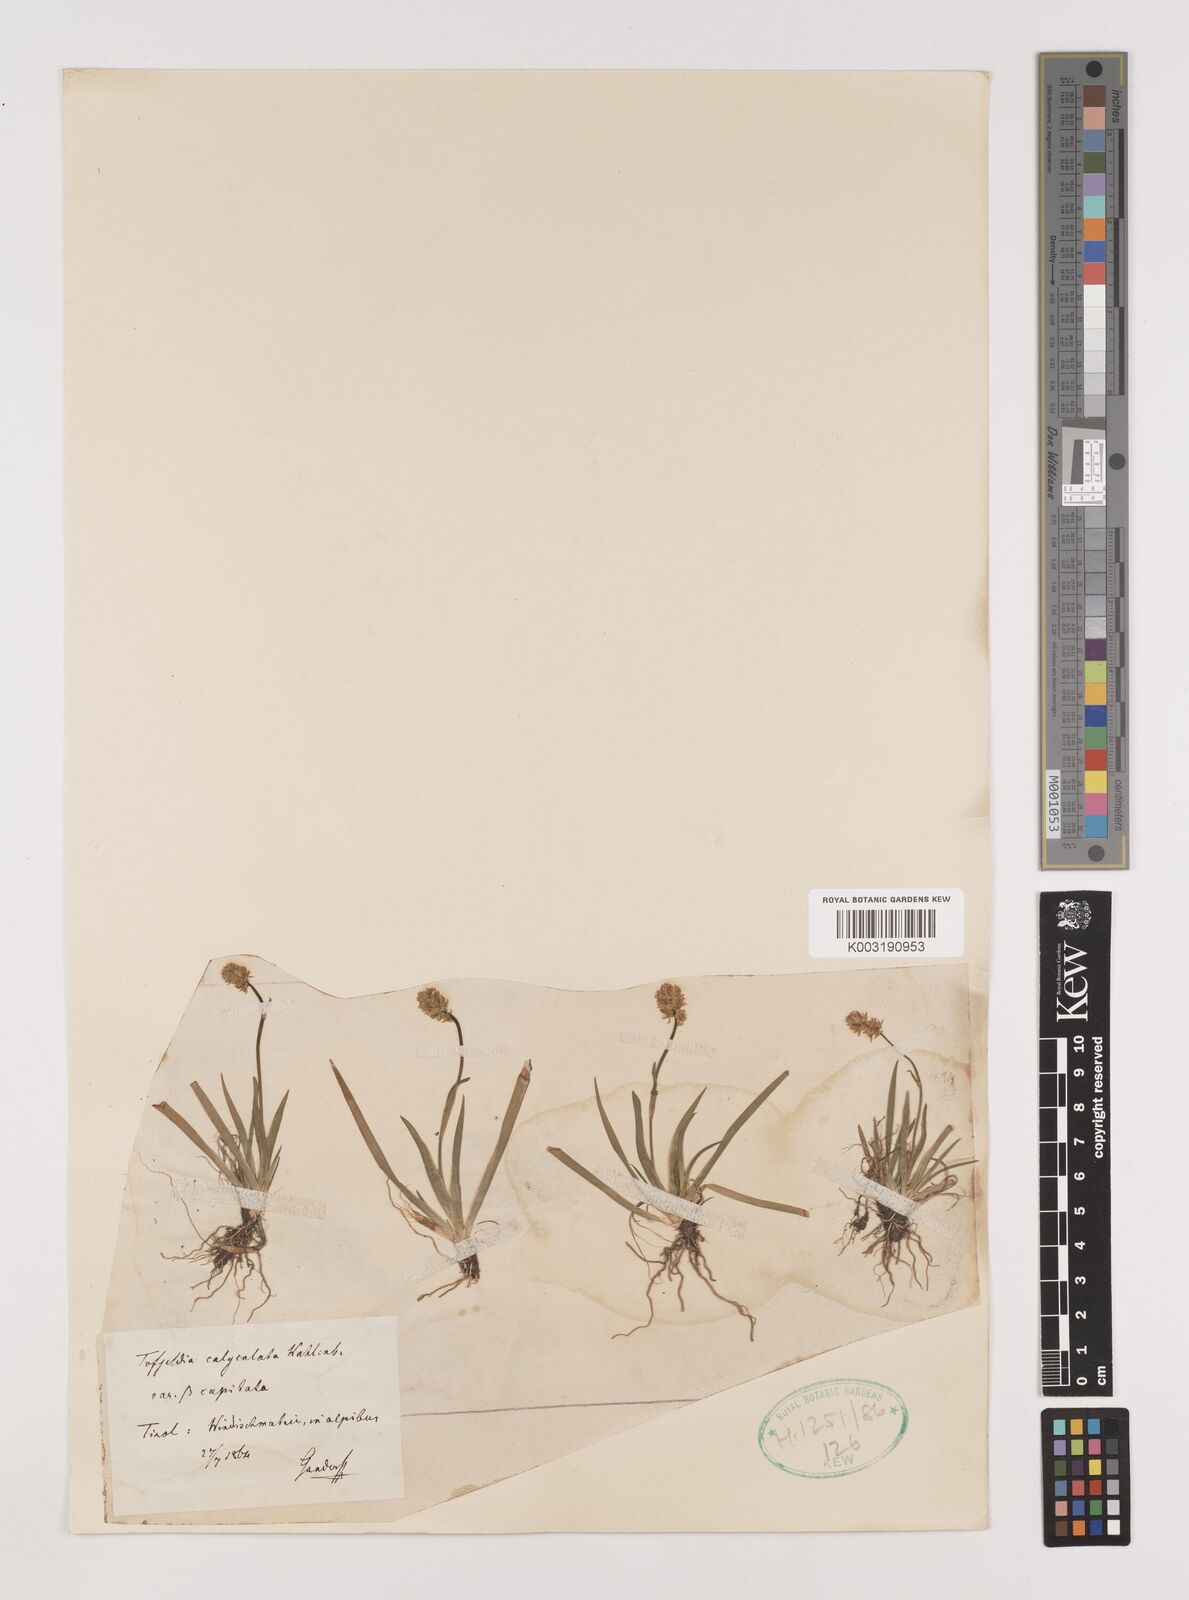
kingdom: Plantae
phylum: Tracheophyta
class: Liliopsida
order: Alismatales
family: Tofieldiaceae
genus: Tofieldia
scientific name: Tofieldia calyculata
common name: German-asphodel
